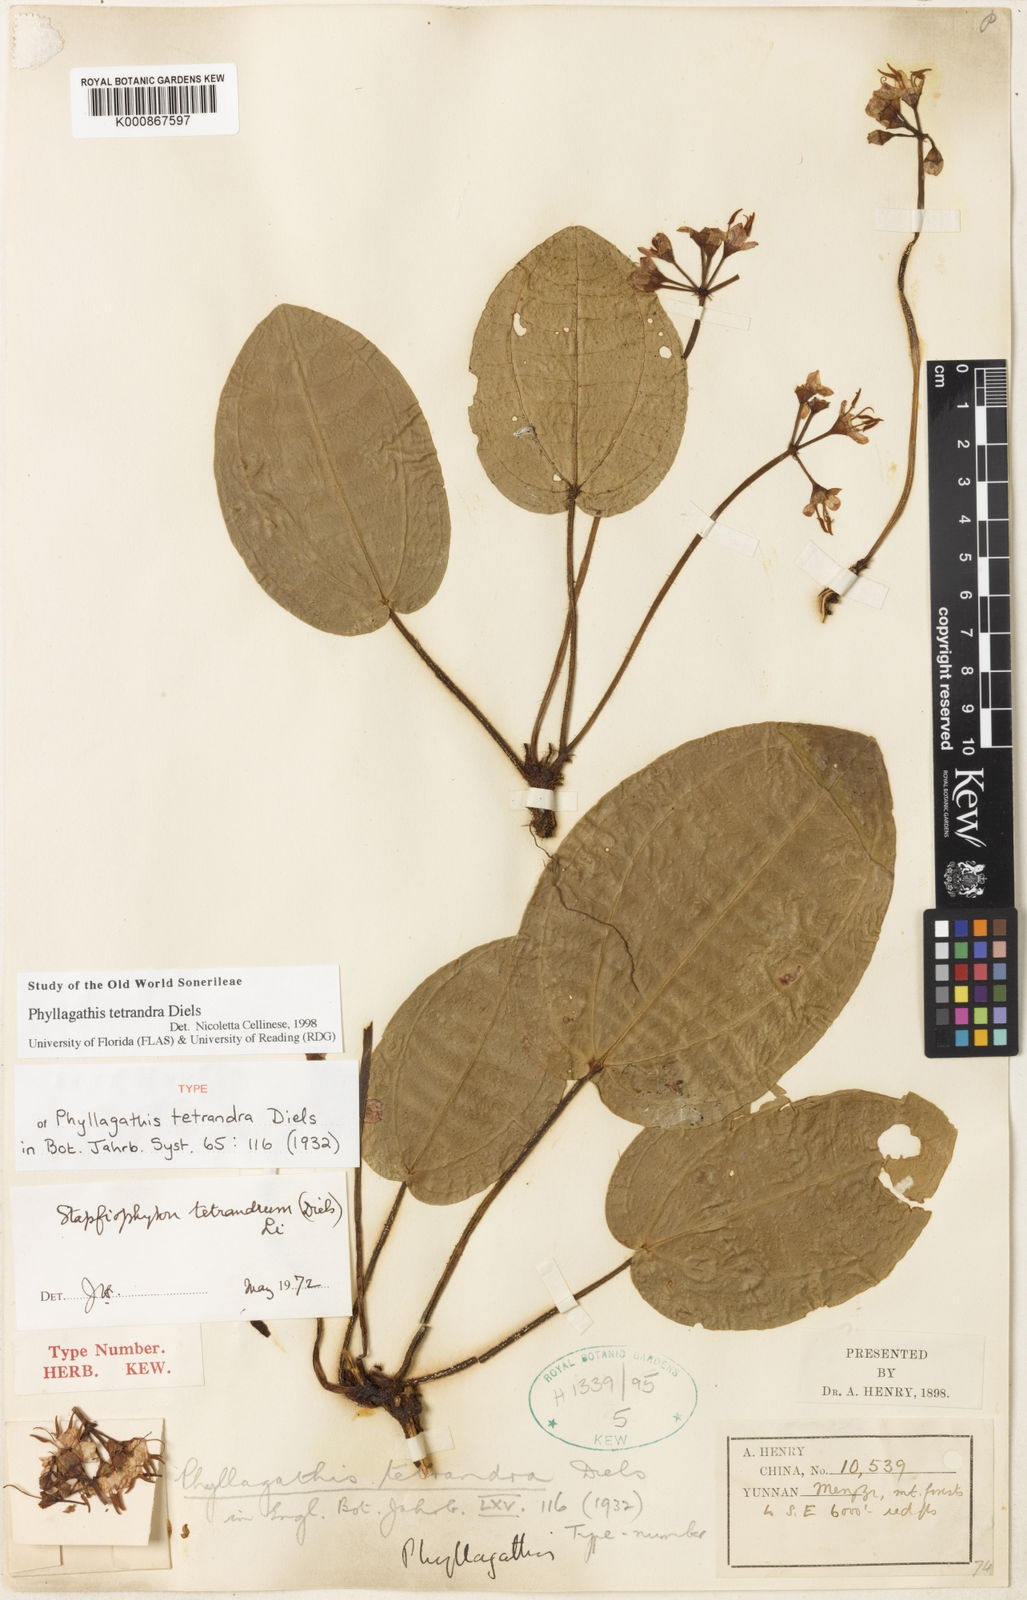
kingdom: Plantae
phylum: Tracheophyta
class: Magnoliopsida
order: Myrtales
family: Melastomataceae
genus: Phyllagathis
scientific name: Phyllagathis tetrandra
